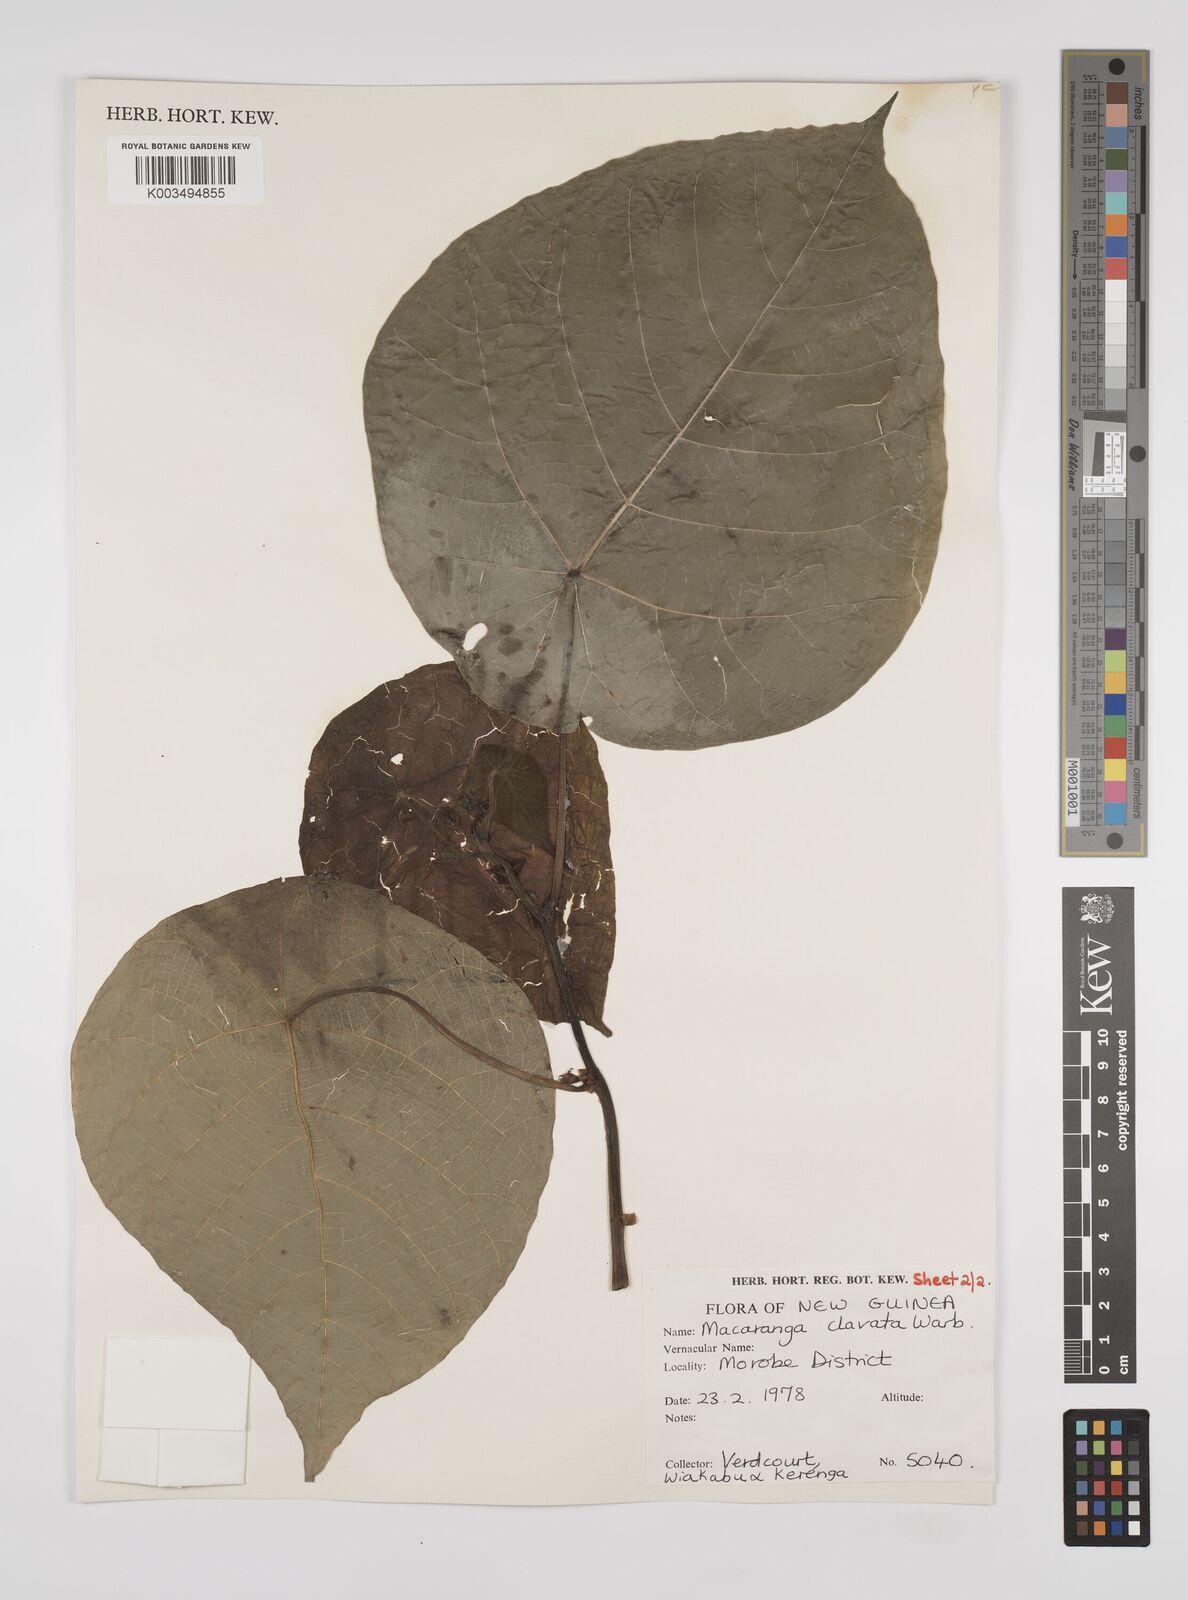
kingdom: Plantae
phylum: Tracheophyta
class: Magnoliopsida
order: Malpighiales
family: Euphorbiaceae
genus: Macaranga
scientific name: Macaranga clavata
